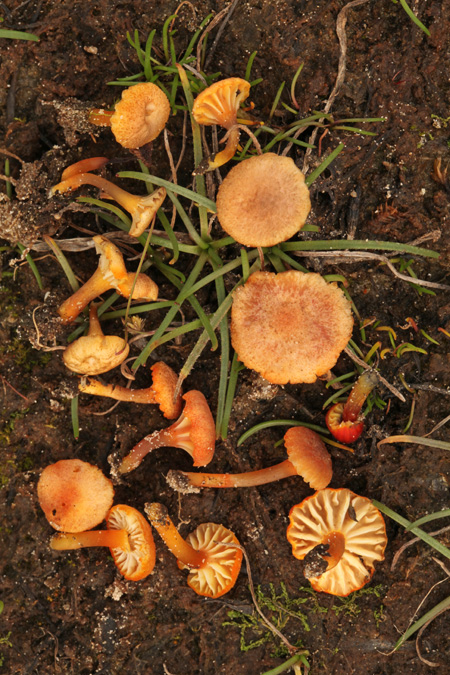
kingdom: Fungi
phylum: Basidiomycota
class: Agaricomycetes
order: Agaricales
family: Hygrophoraceae
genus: Hygrocybe
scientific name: Hygrocybe coccineocrenata
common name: tørvemos-vokshat
